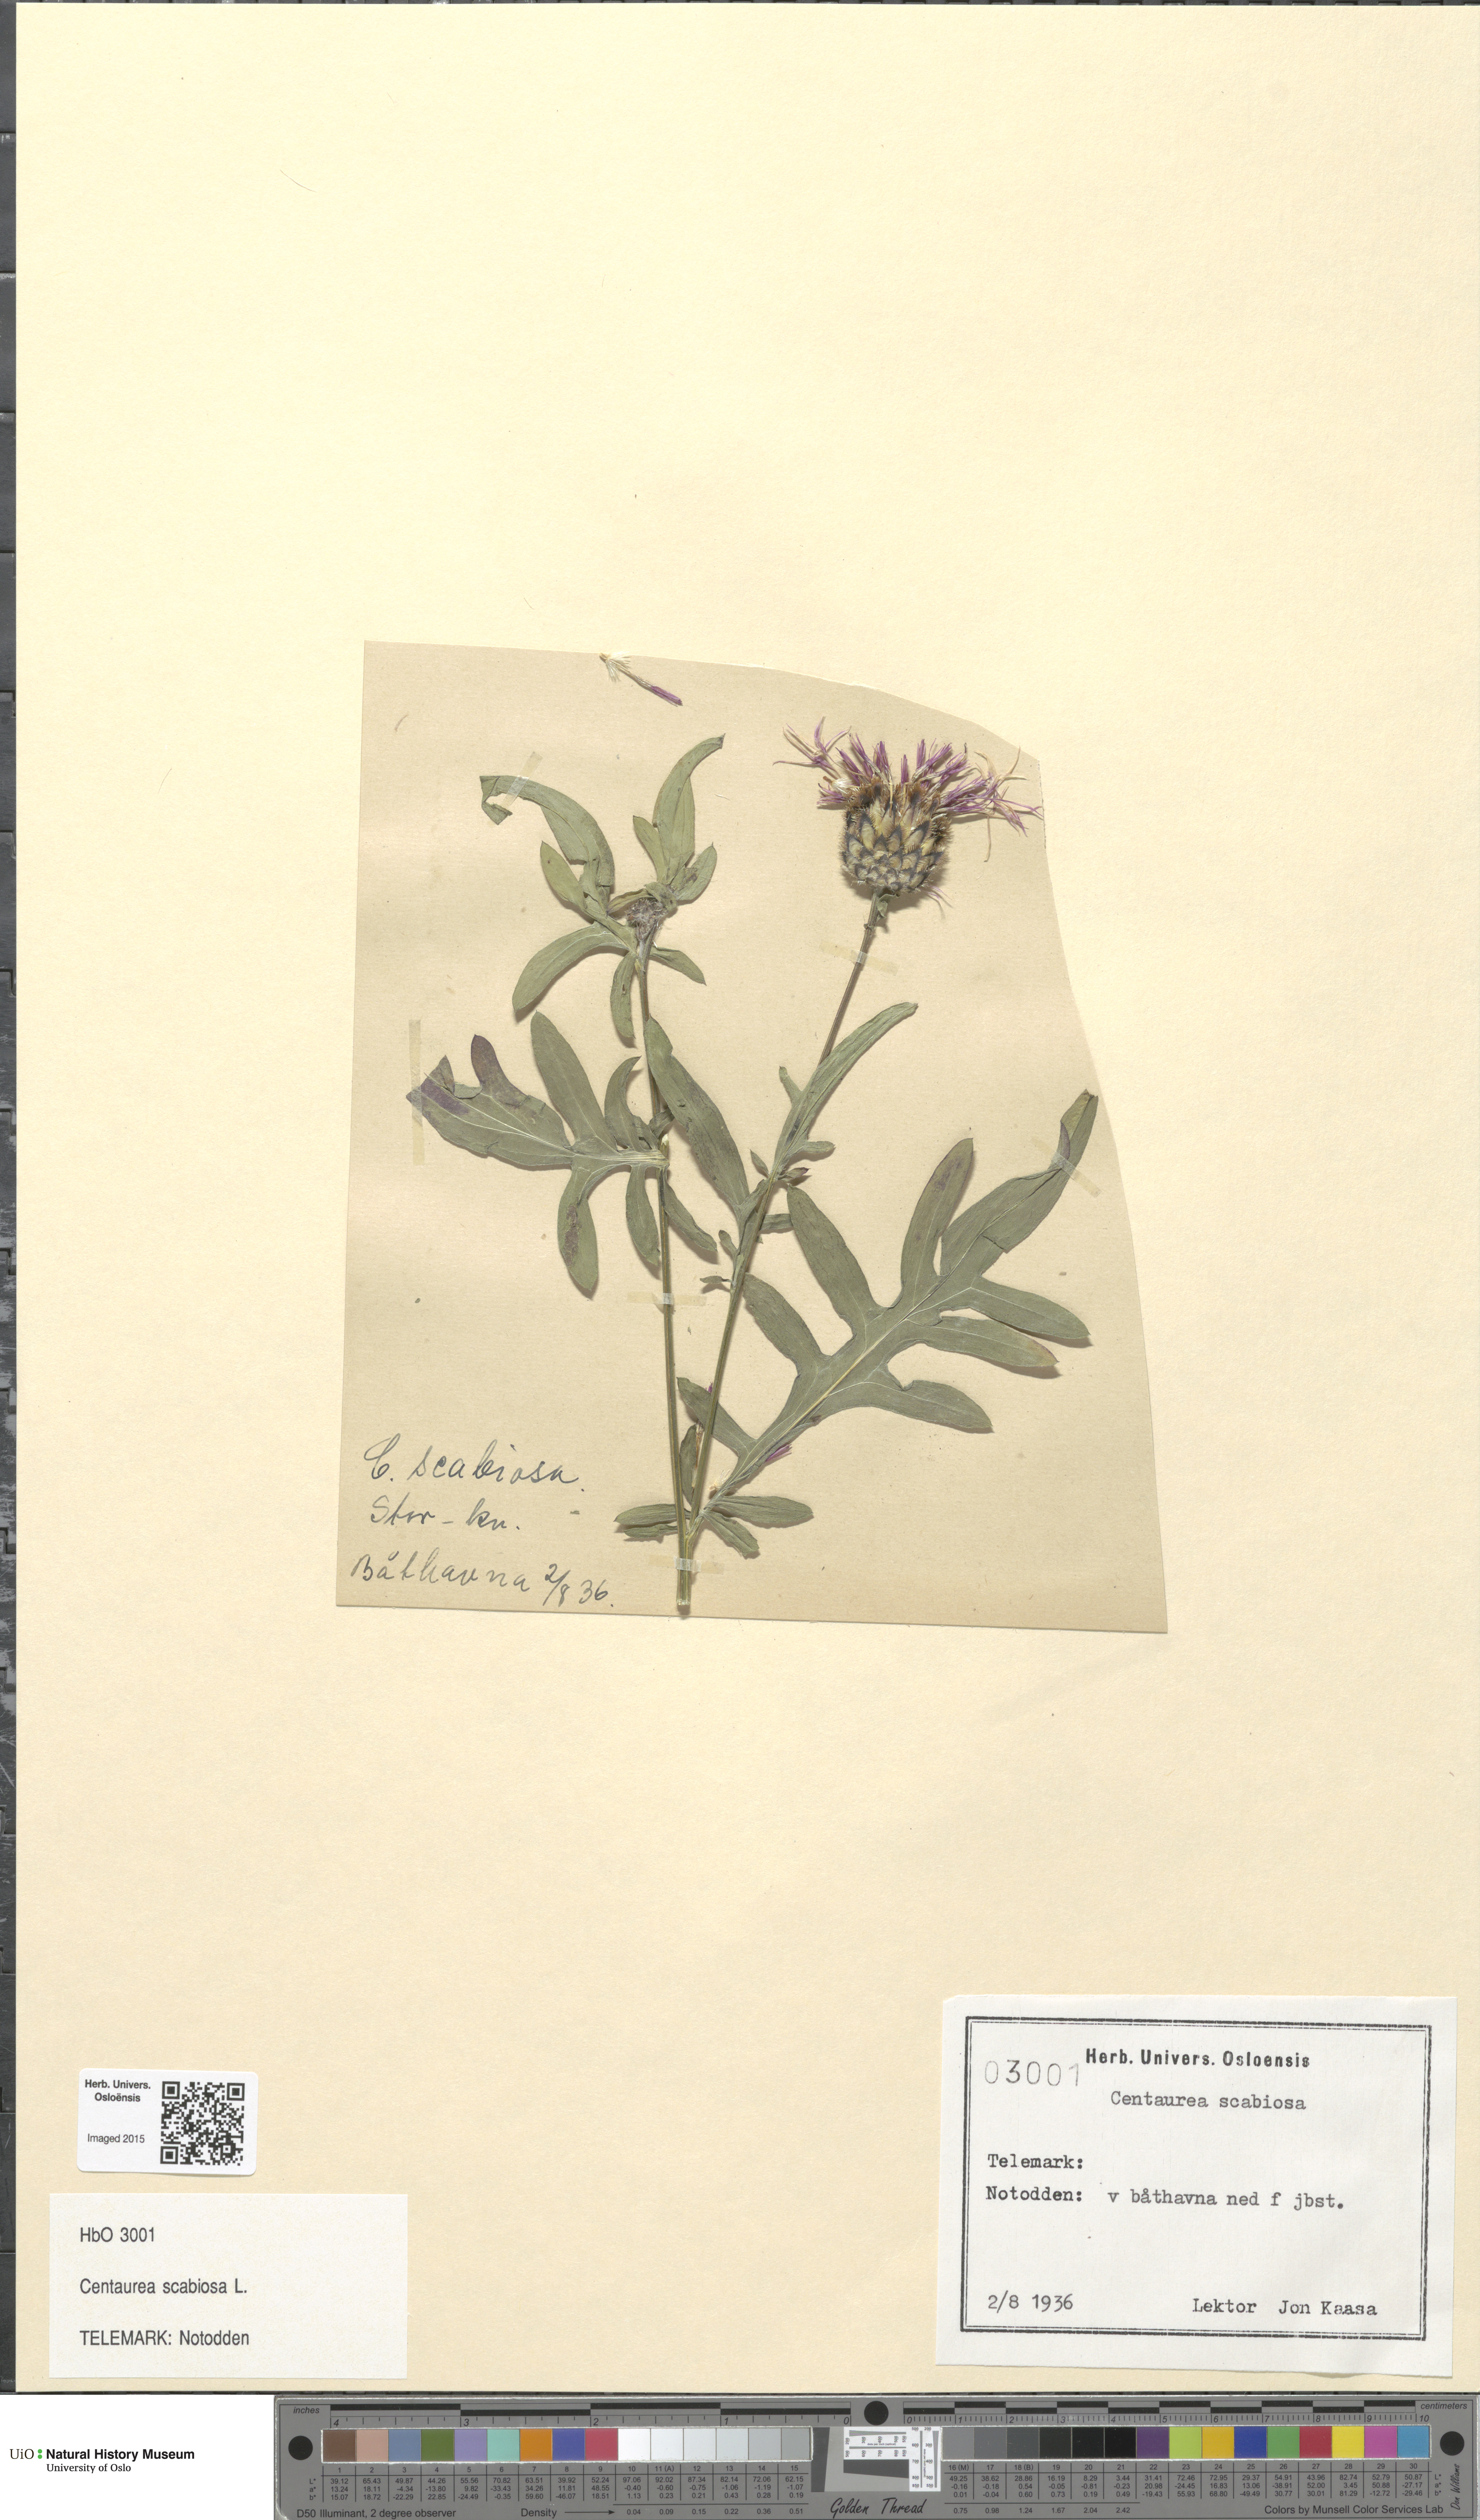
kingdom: Plantae
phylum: Tracheophyta
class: Magnoliopsida
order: Asterales
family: Asteraceae
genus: Centaurea
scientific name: Centaurea scabiosa
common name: Greater knapweed
